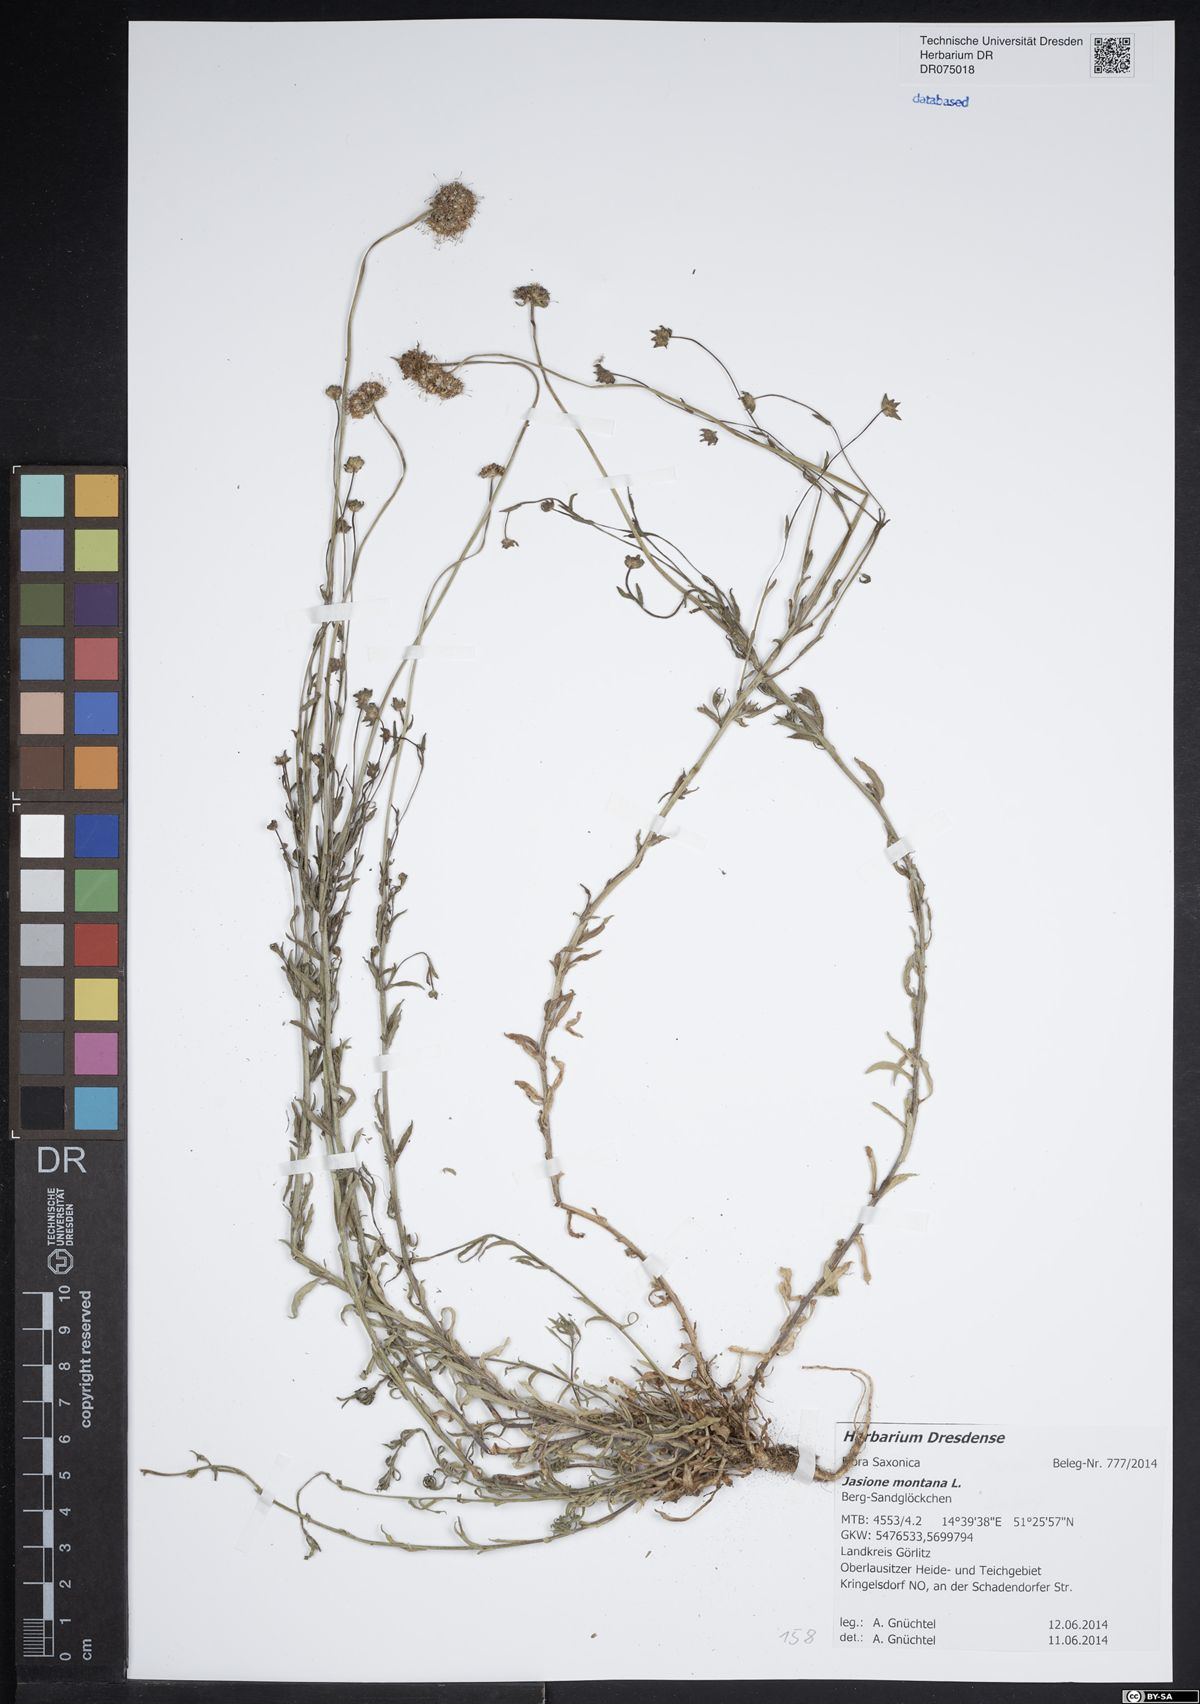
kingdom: Plantae
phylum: Tracheophyta
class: Magnoliopsida
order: Asterales
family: Campanulaceae
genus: Jasione
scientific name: Jasione montana
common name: Sheep's-bit
